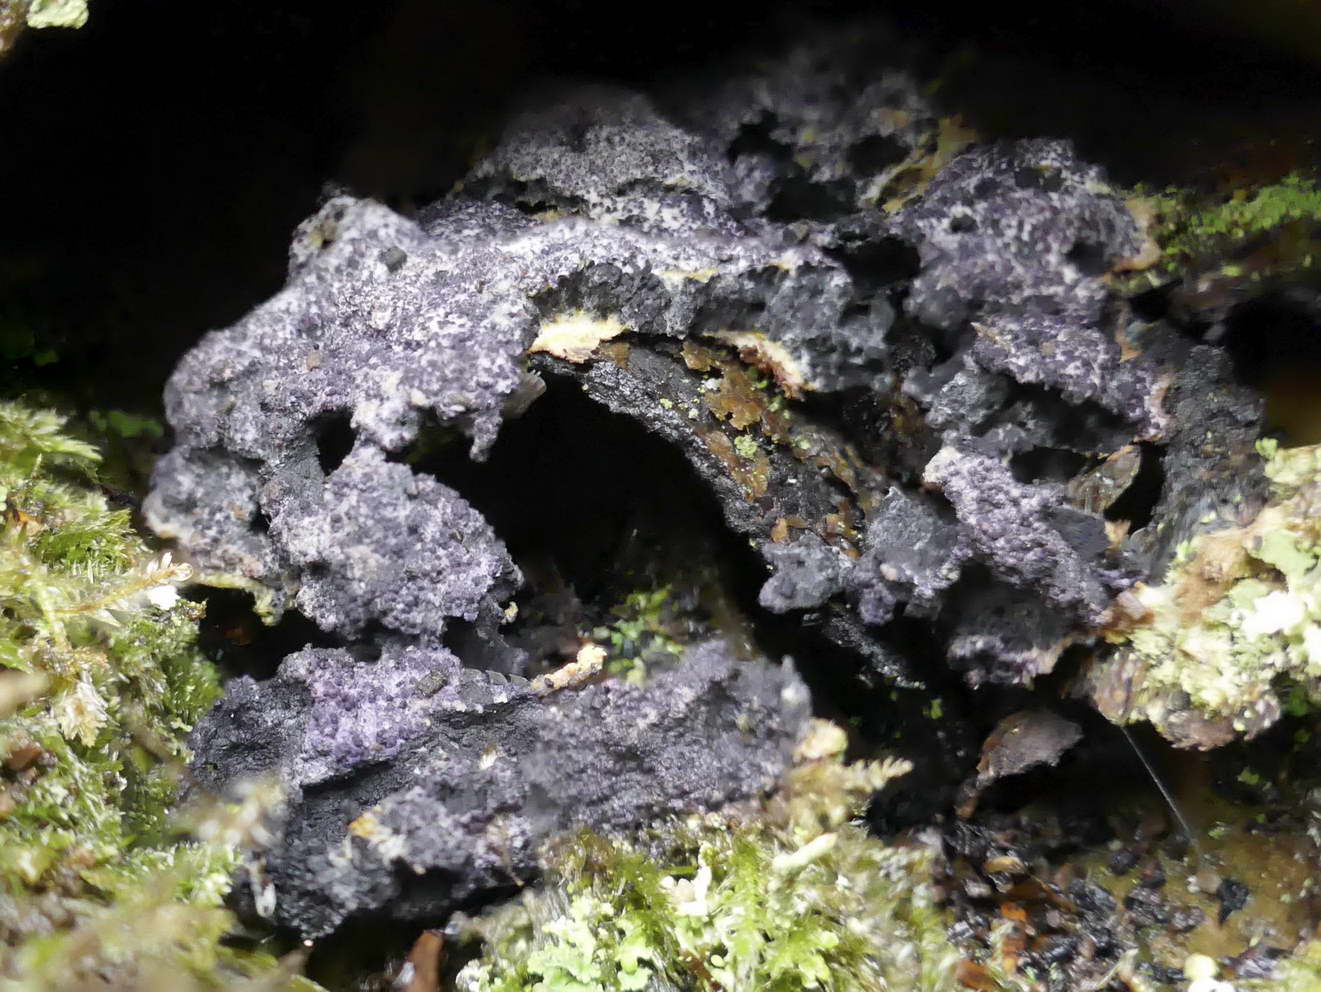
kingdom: Fungi
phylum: Ascomycota
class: Sordariomycetes
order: Hypocreales
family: Bionectriaceae
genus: Nectriopsis
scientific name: Nectriopsis violacea
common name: violet snyltespind
